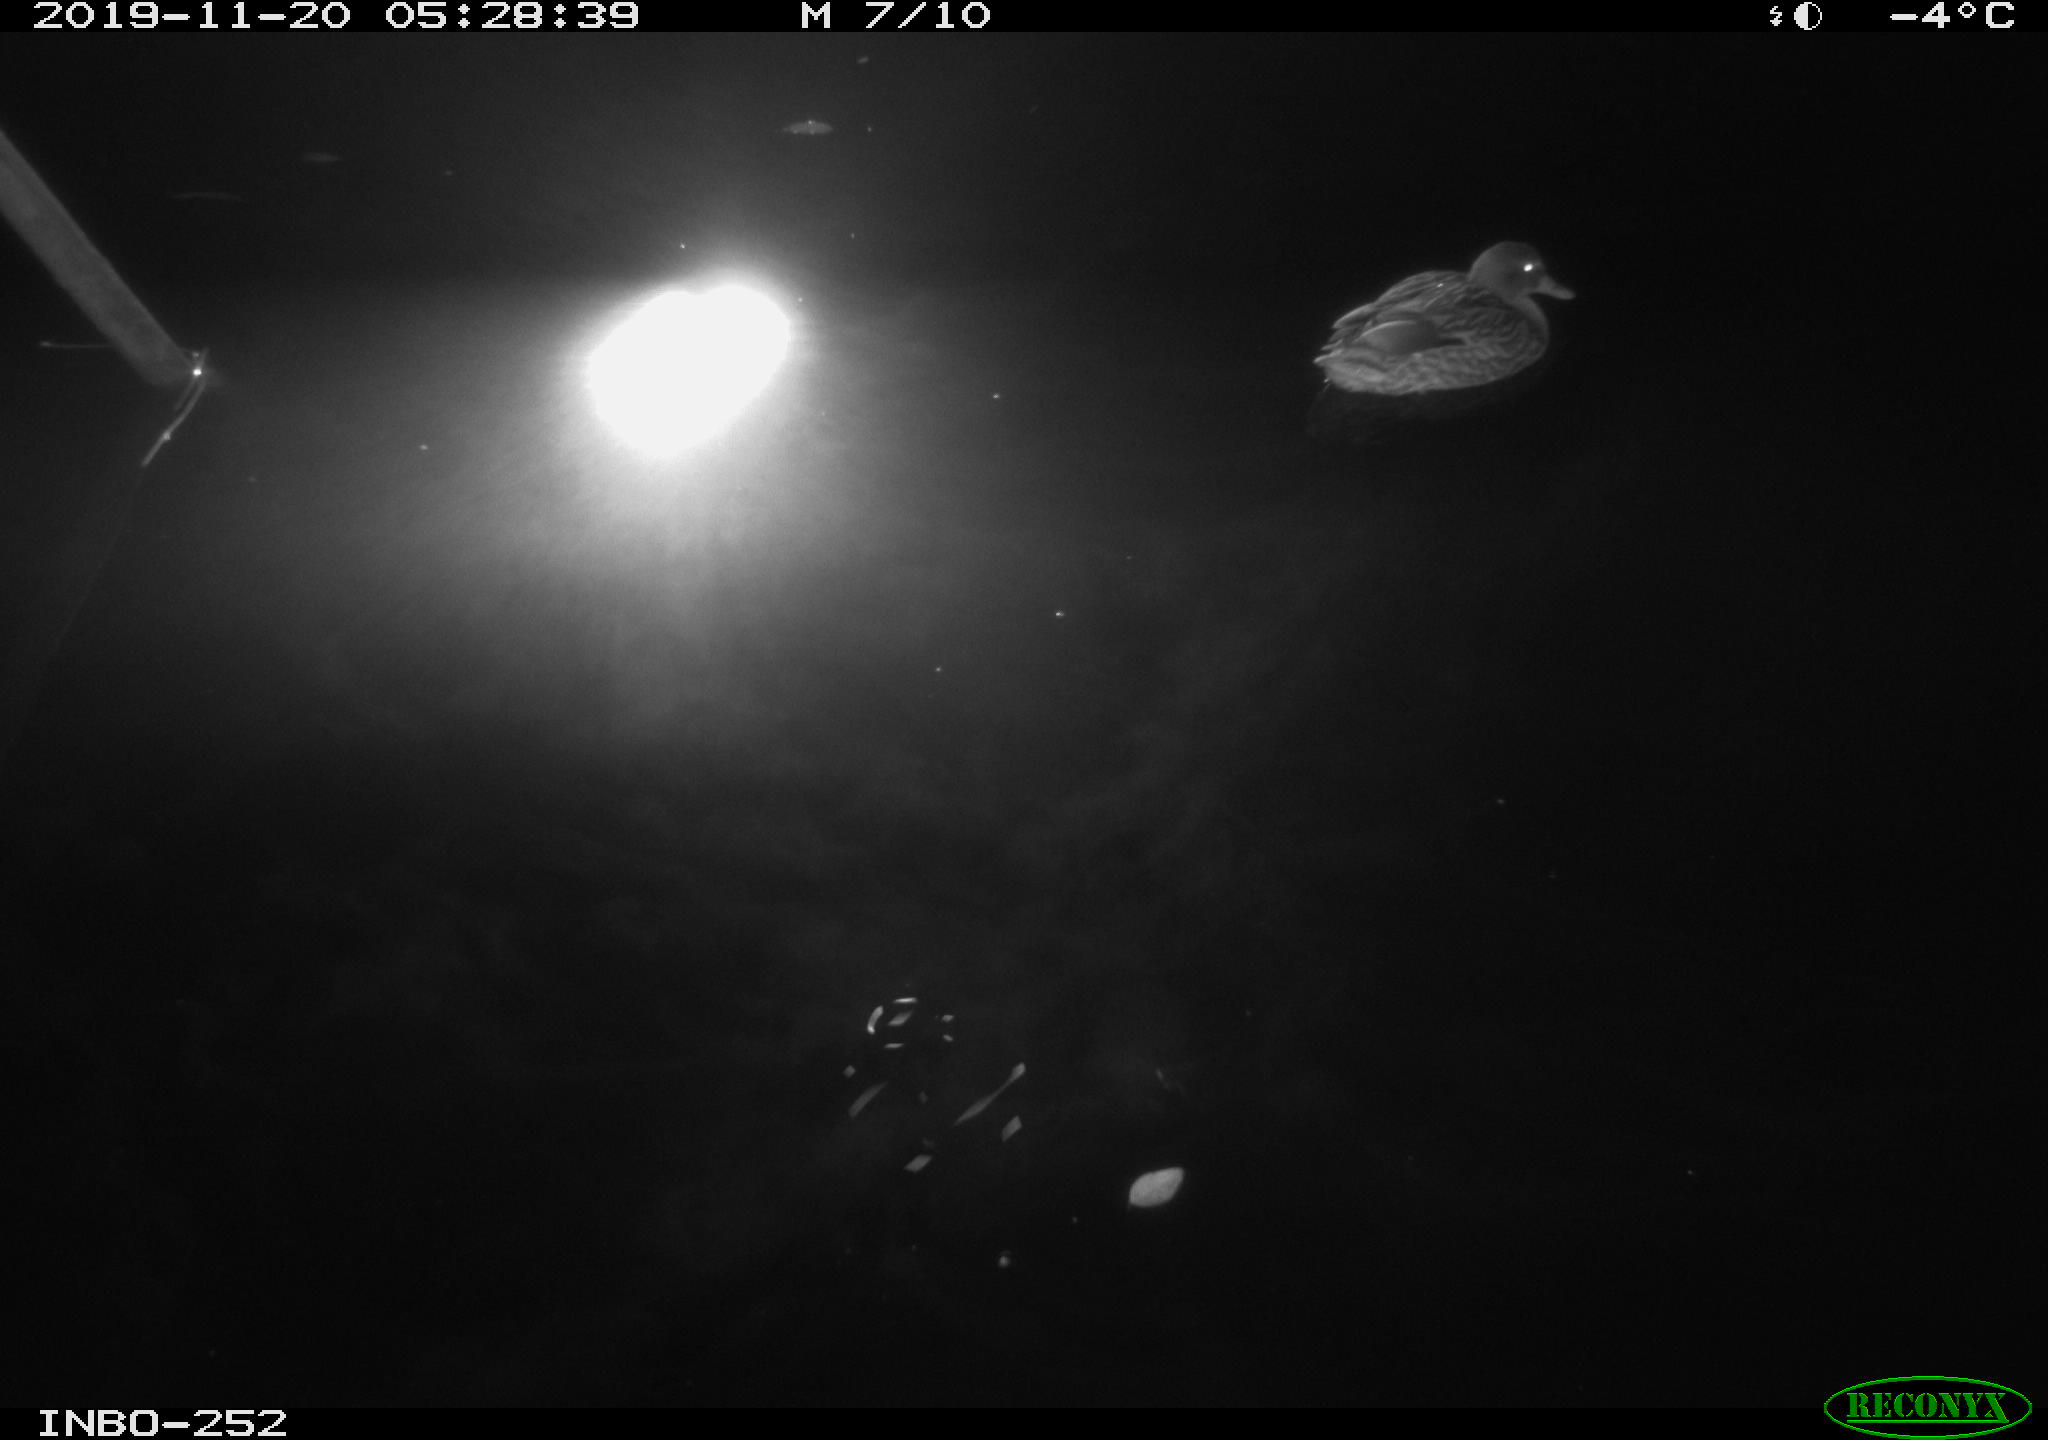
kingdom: Animalia
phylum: Chordata
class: Aves
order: Anseriformes
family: Anatidae
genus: Anas
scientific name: Anas platyrhynchos
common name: Mallard
